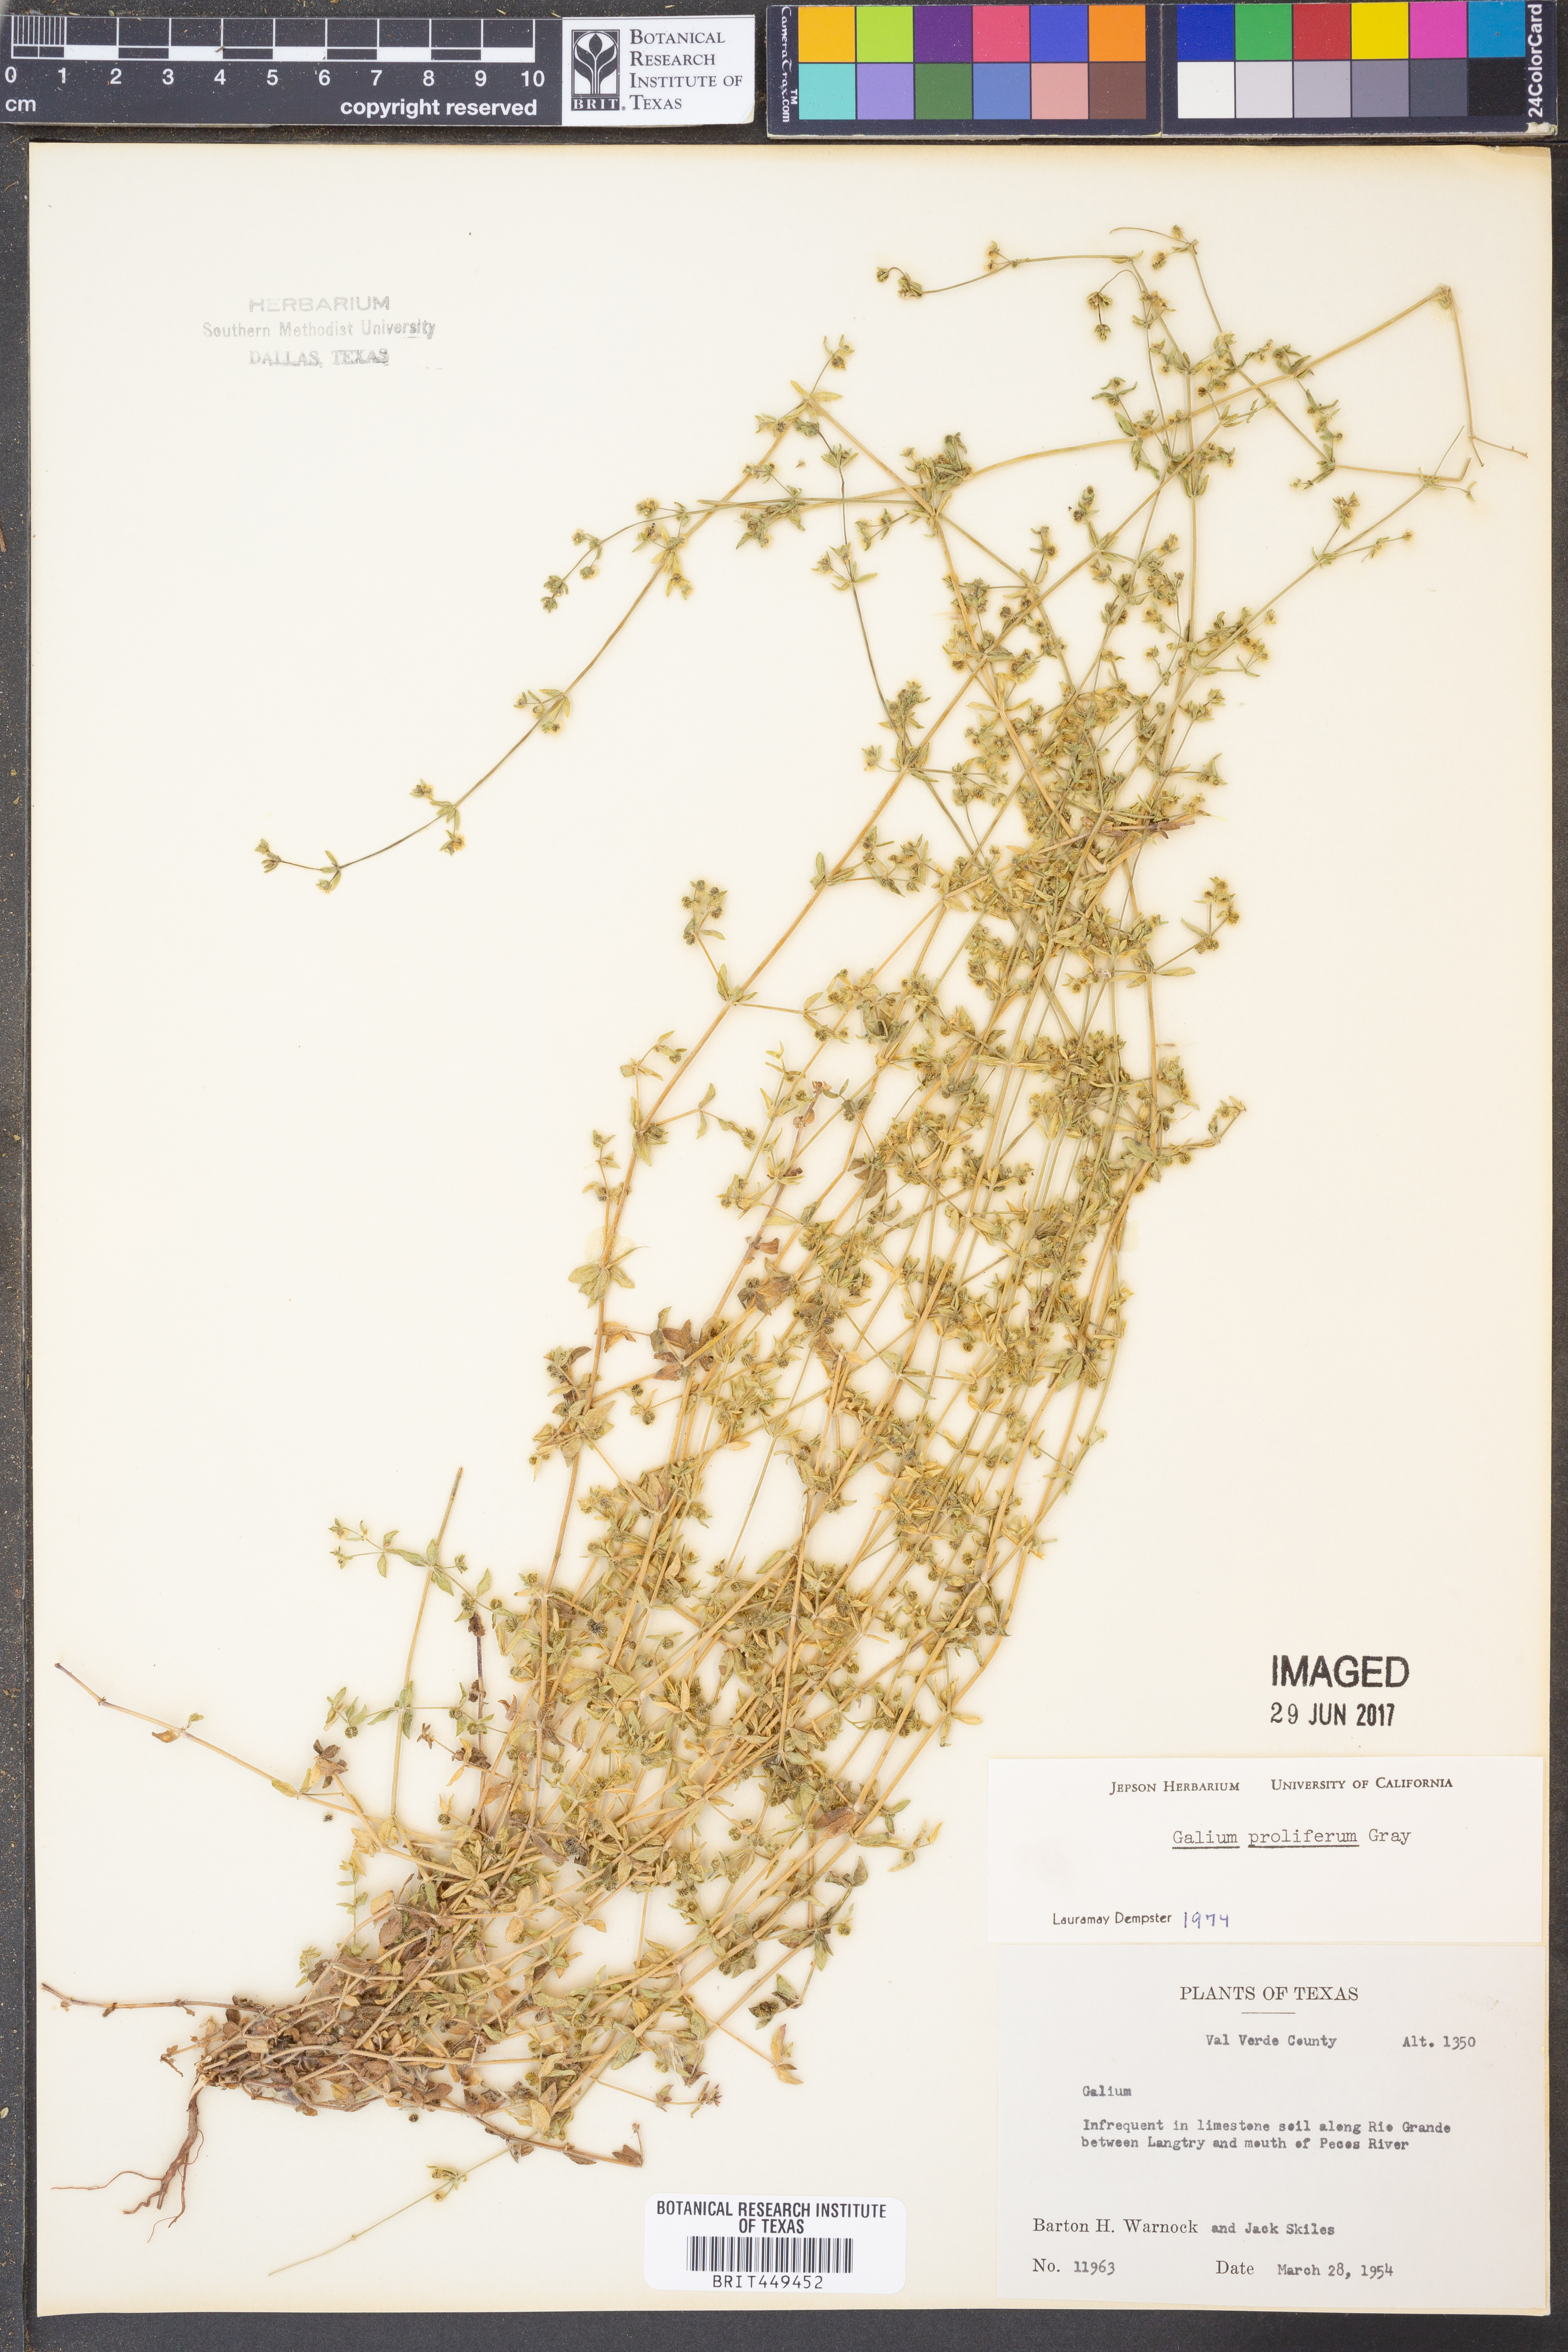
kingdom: Plantae
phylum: Tracheophyta
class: Magnoliopsida
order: Gentianales
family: Rubiaceae
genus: Galium
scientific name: Galium proliferum
